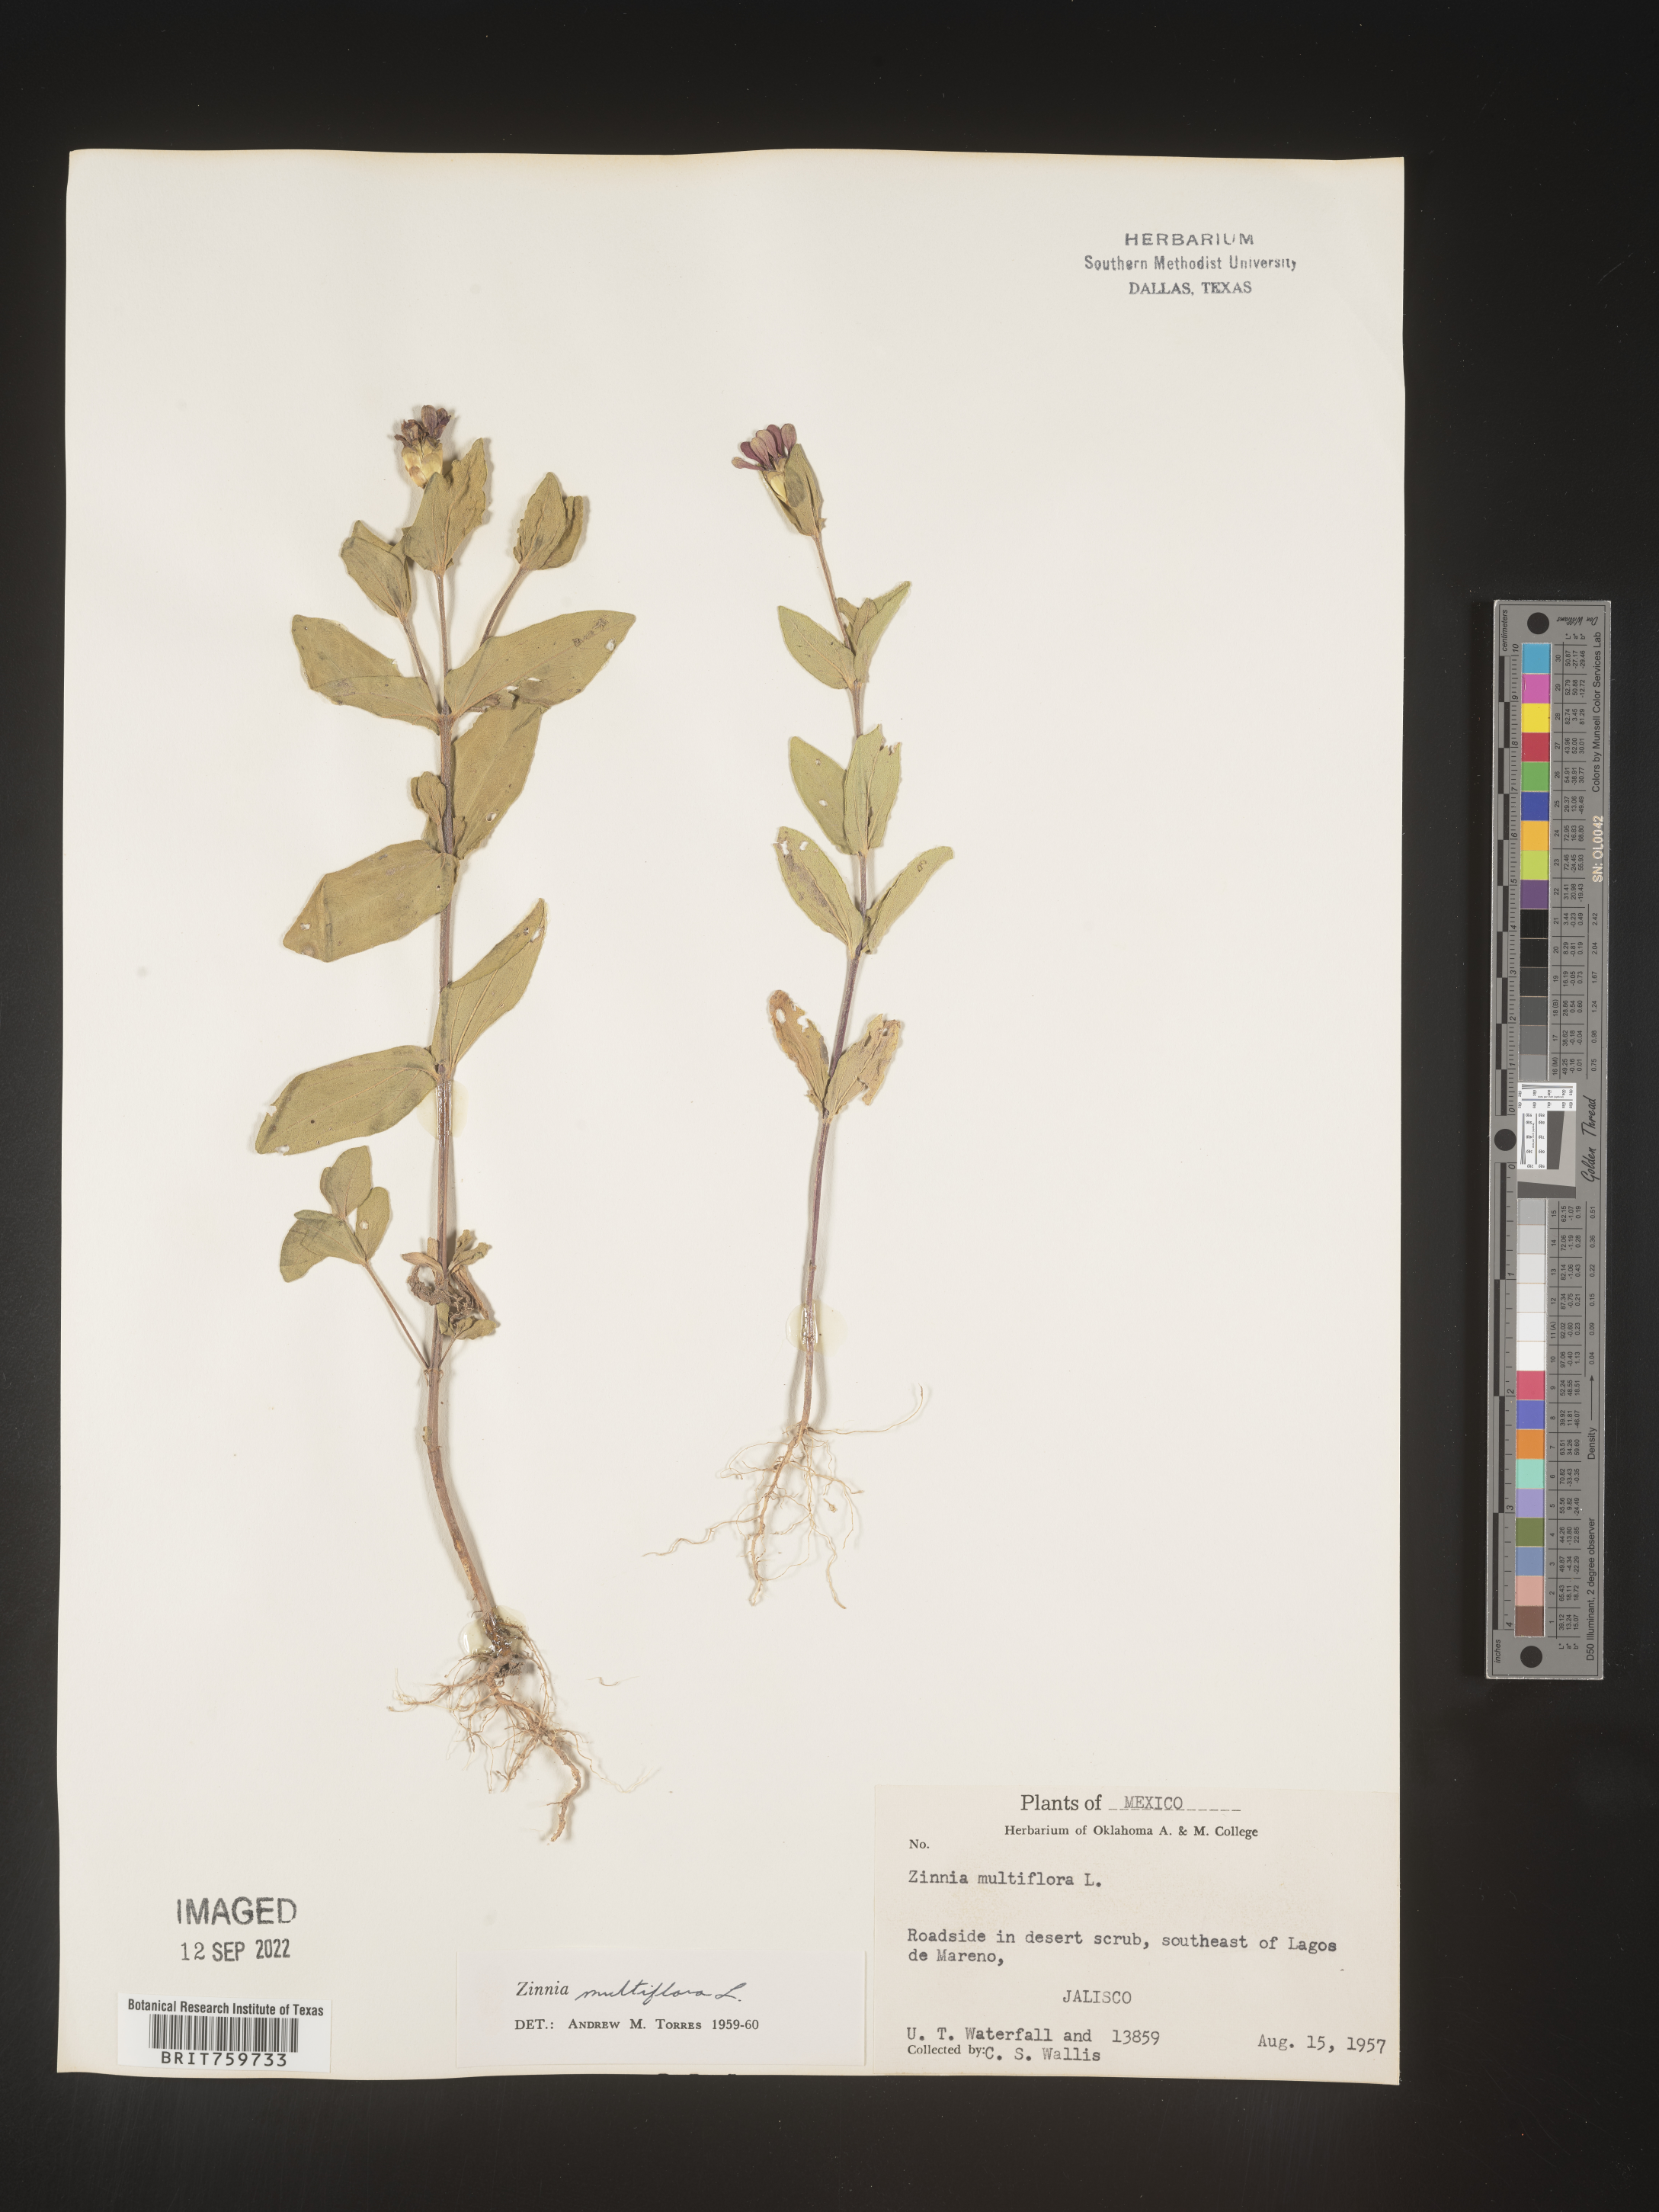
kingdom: Plantae
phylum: Tracheophyta
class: Magnoliopsida
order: Asterales
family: Asteraceae
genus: Zinnia
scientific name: Zinnia
